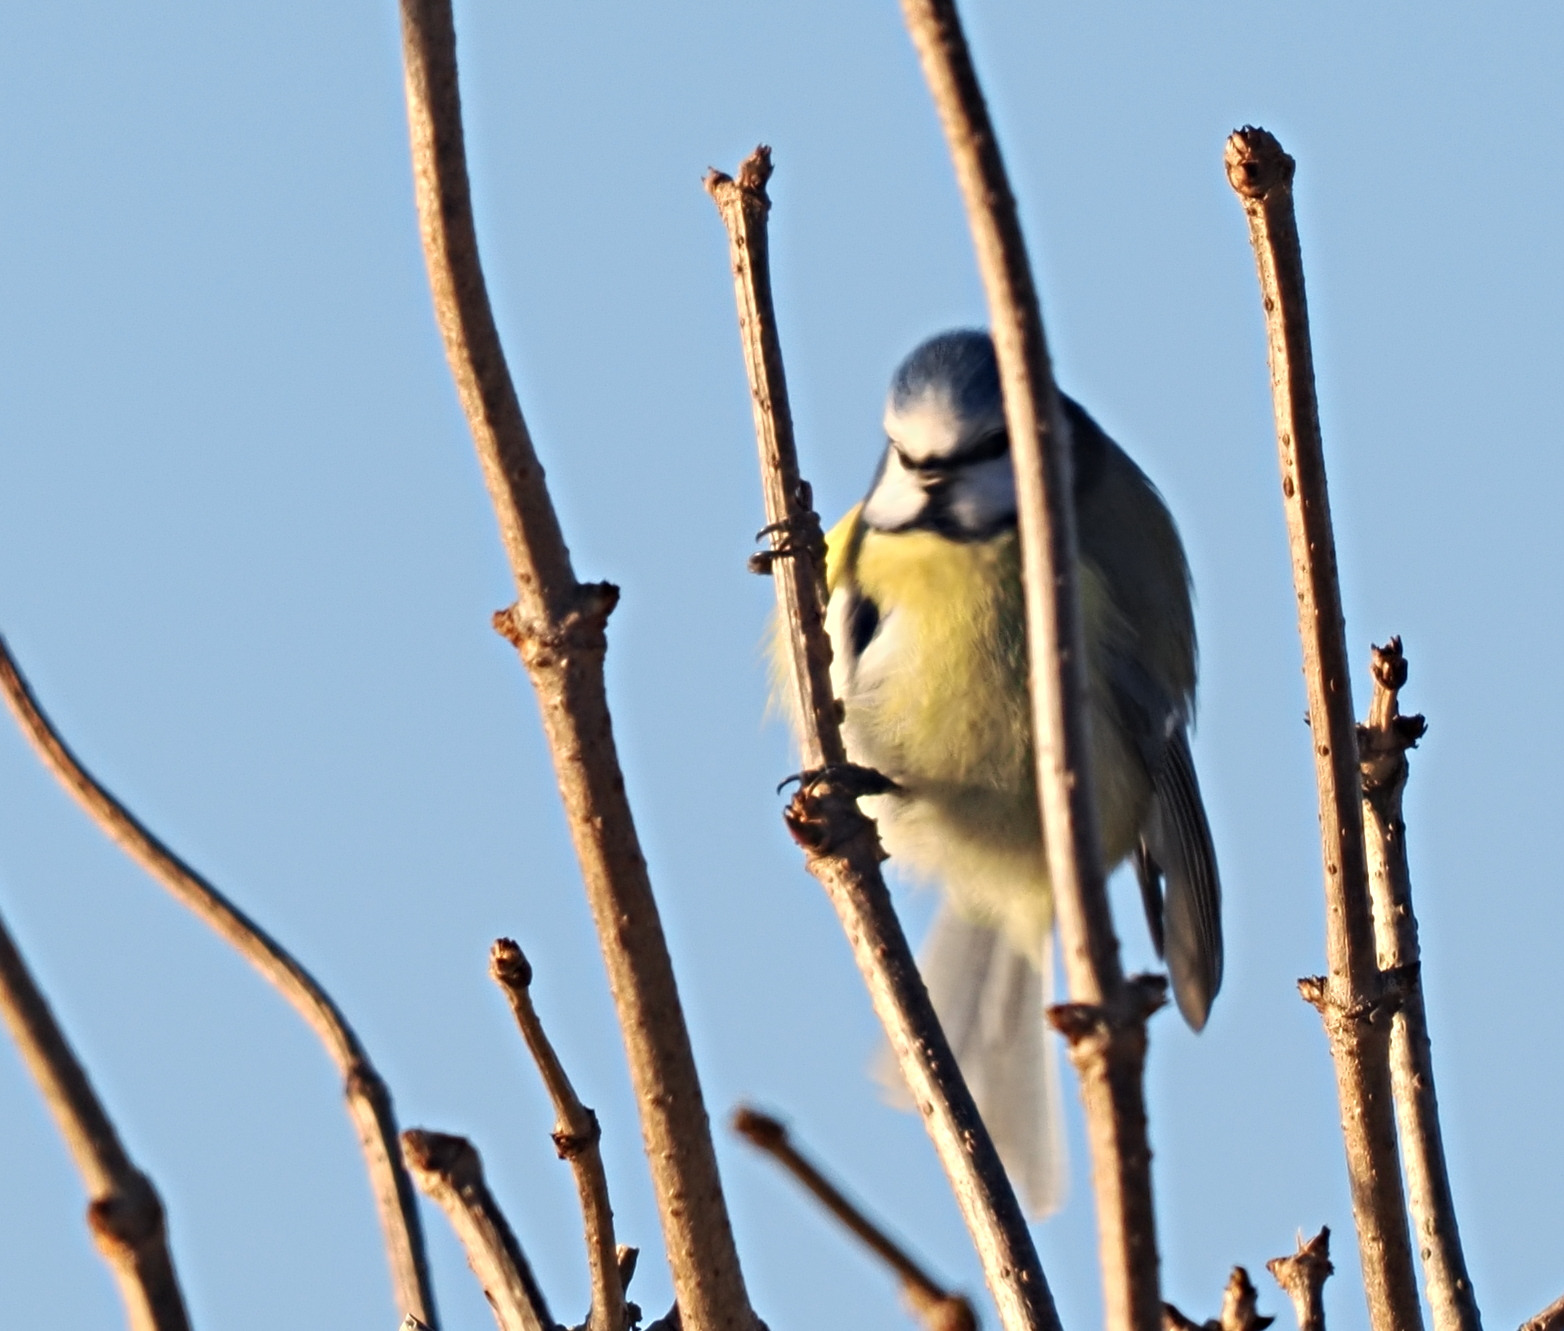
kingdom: Animalia
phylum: Chordata
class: Aves
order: Passeriformes
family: Paridae
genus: Cyanistes
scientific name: Cyanistes caeruleus
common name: Blåmejse
